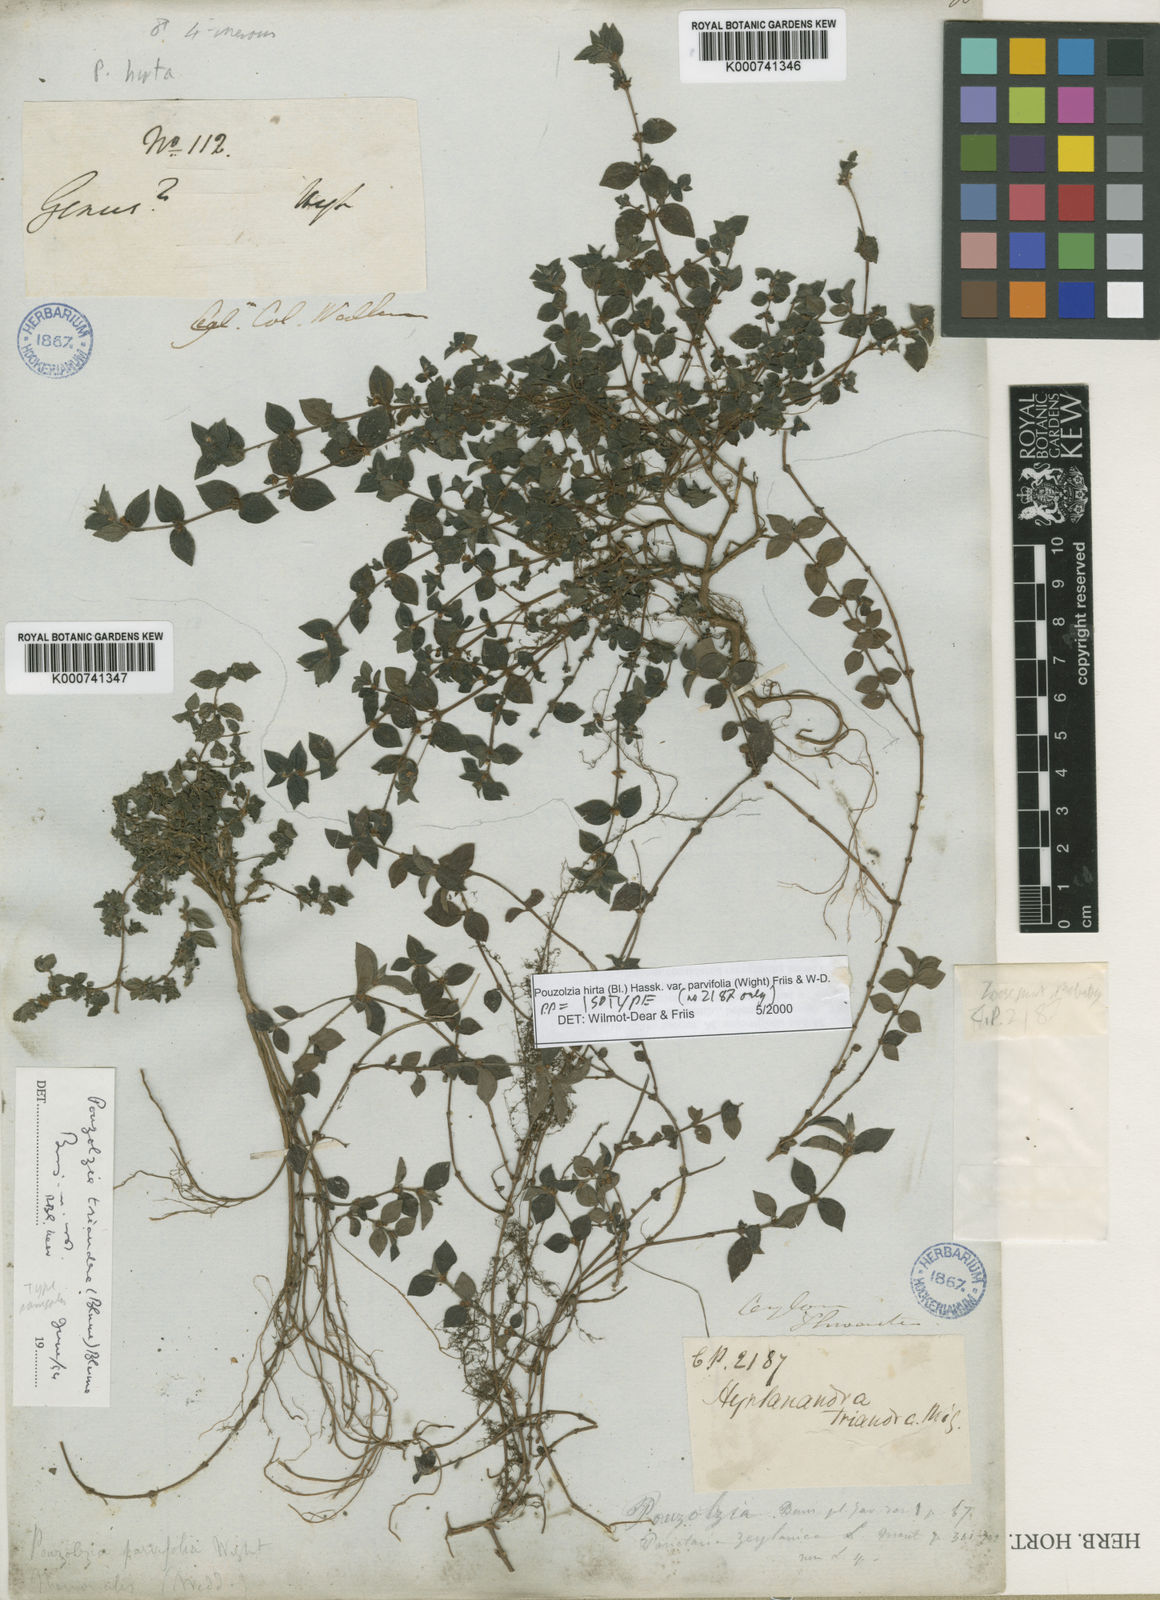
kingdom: Plantae
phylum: Tracheophyta
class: Magnoliopsida
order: Rosales
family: Urticaceae
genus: Gonostegia
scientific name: Gonostegia parvifolia
